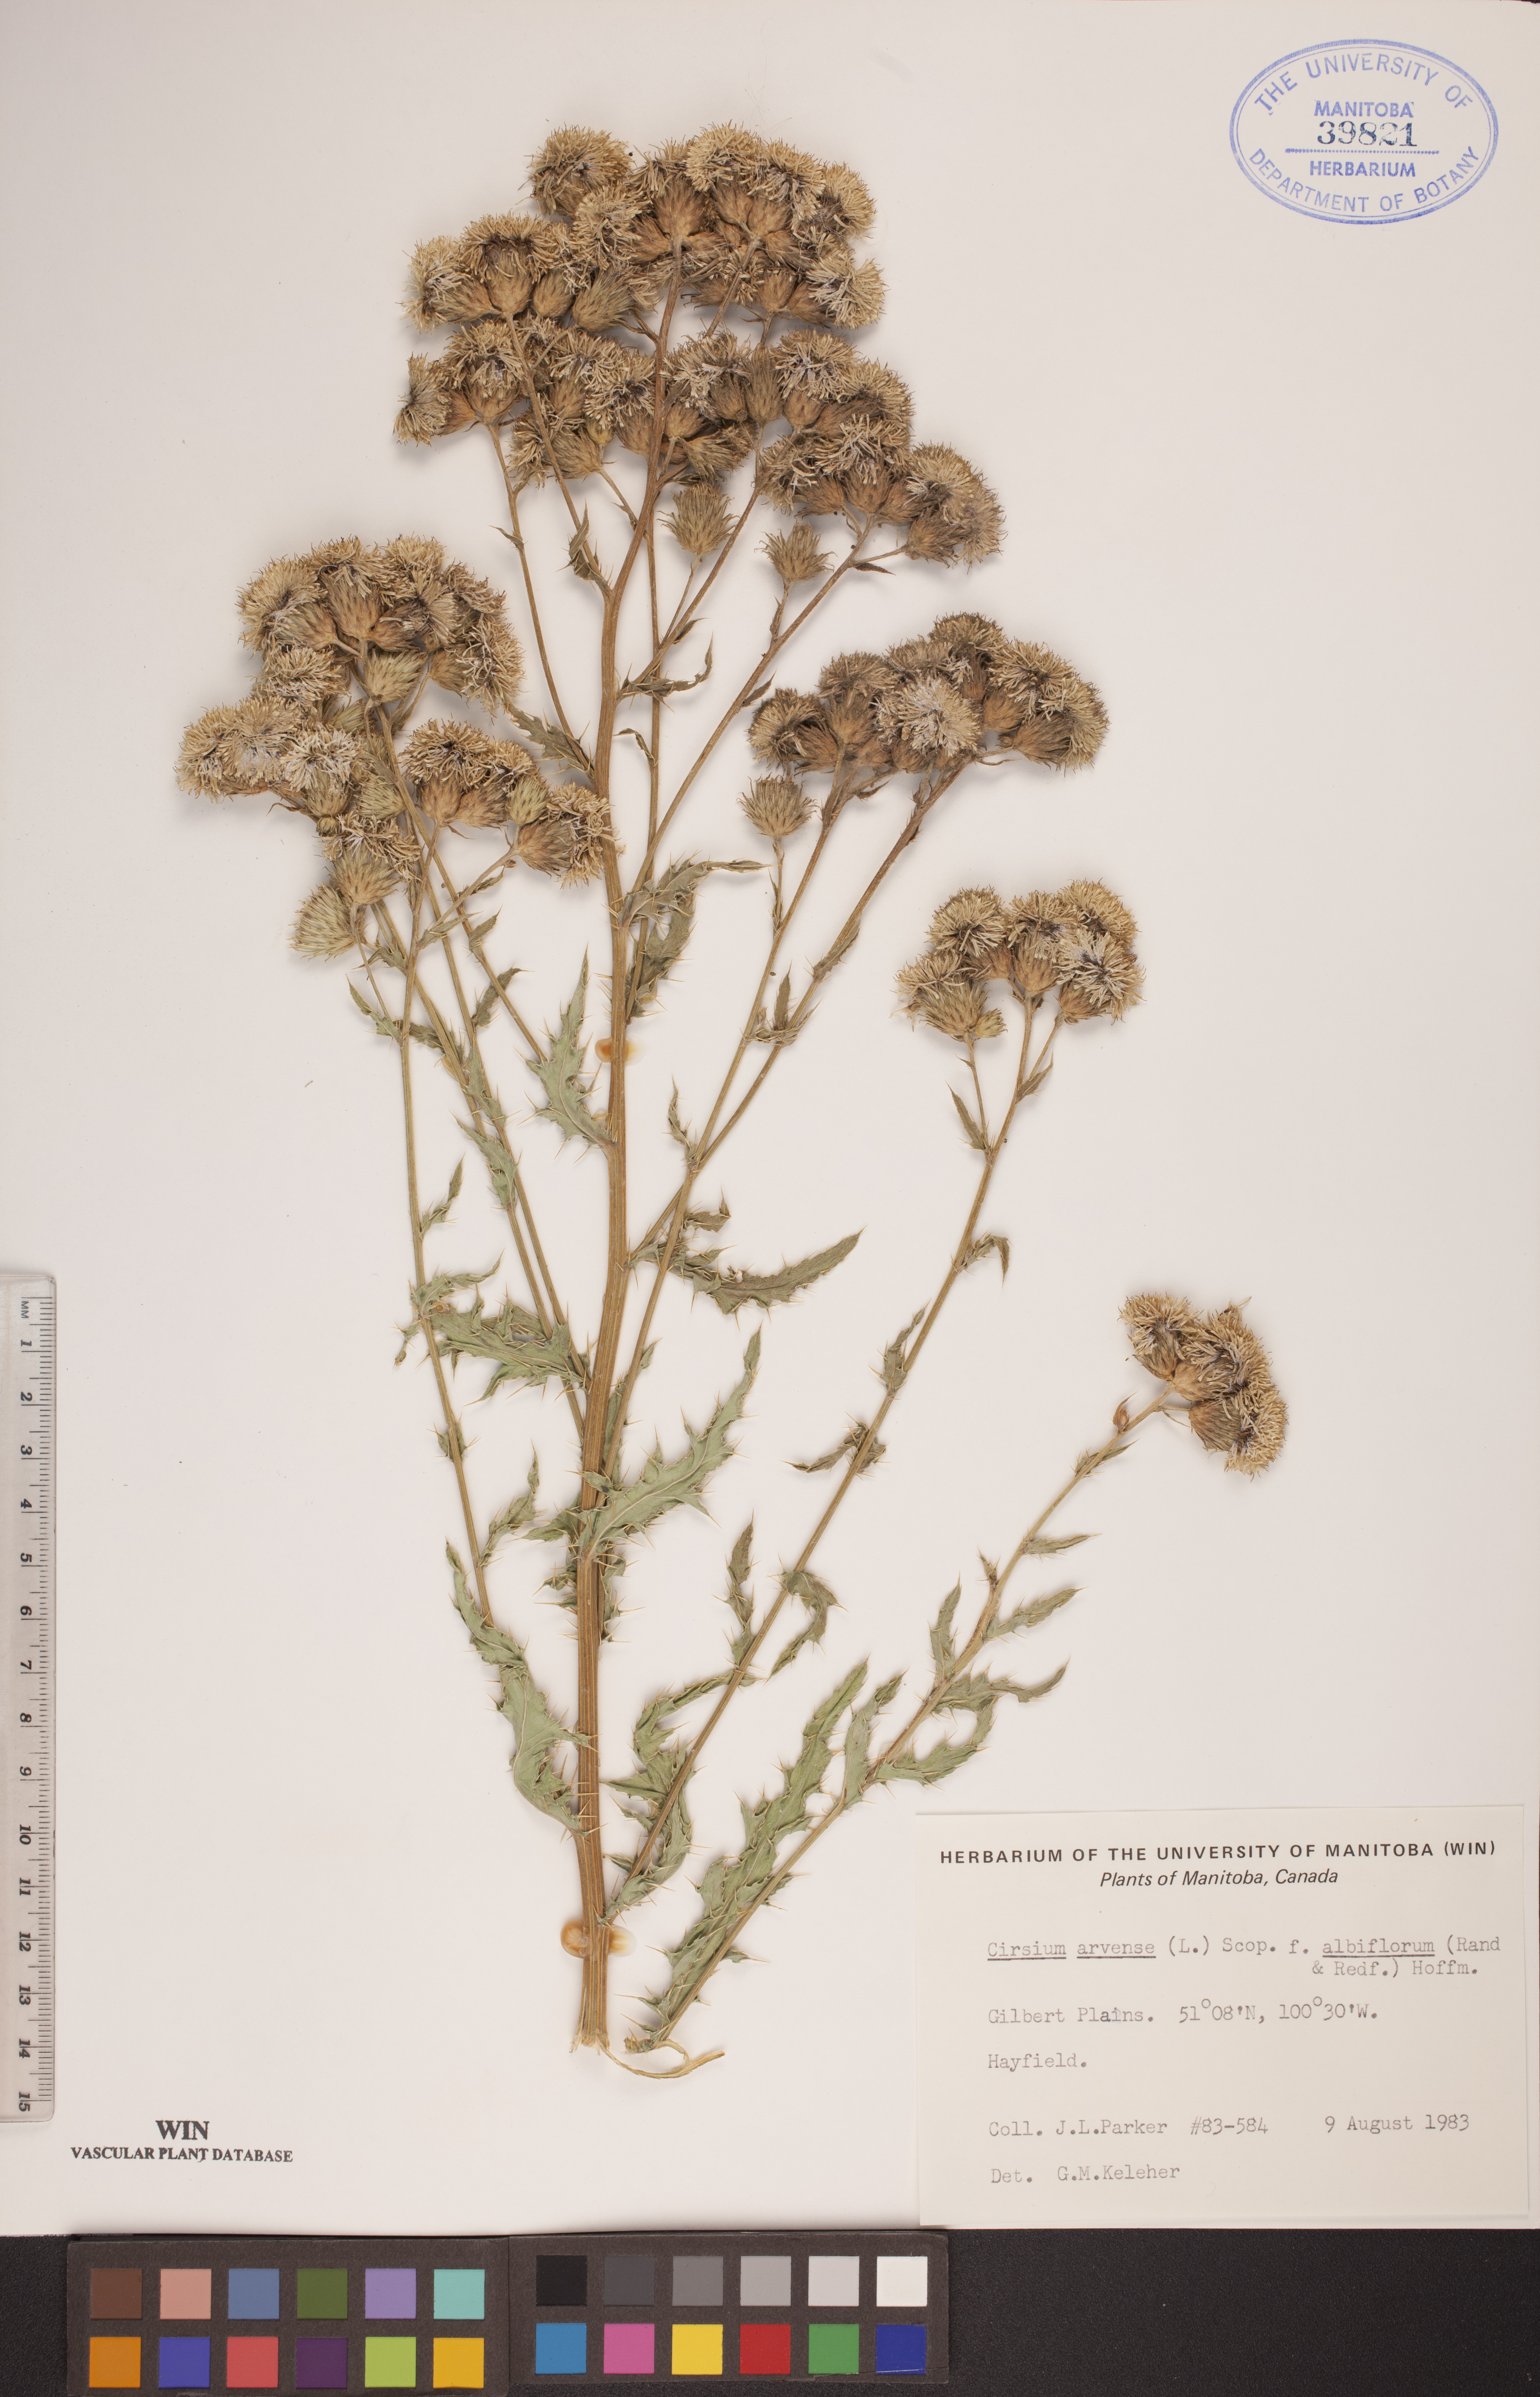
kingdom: Plantae
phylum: Tracheophyta
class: Magnoliopsida
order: Asterales
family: Asteraceae
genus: Cirsium
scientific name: Cirsium arvense
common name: Creeping thistle
